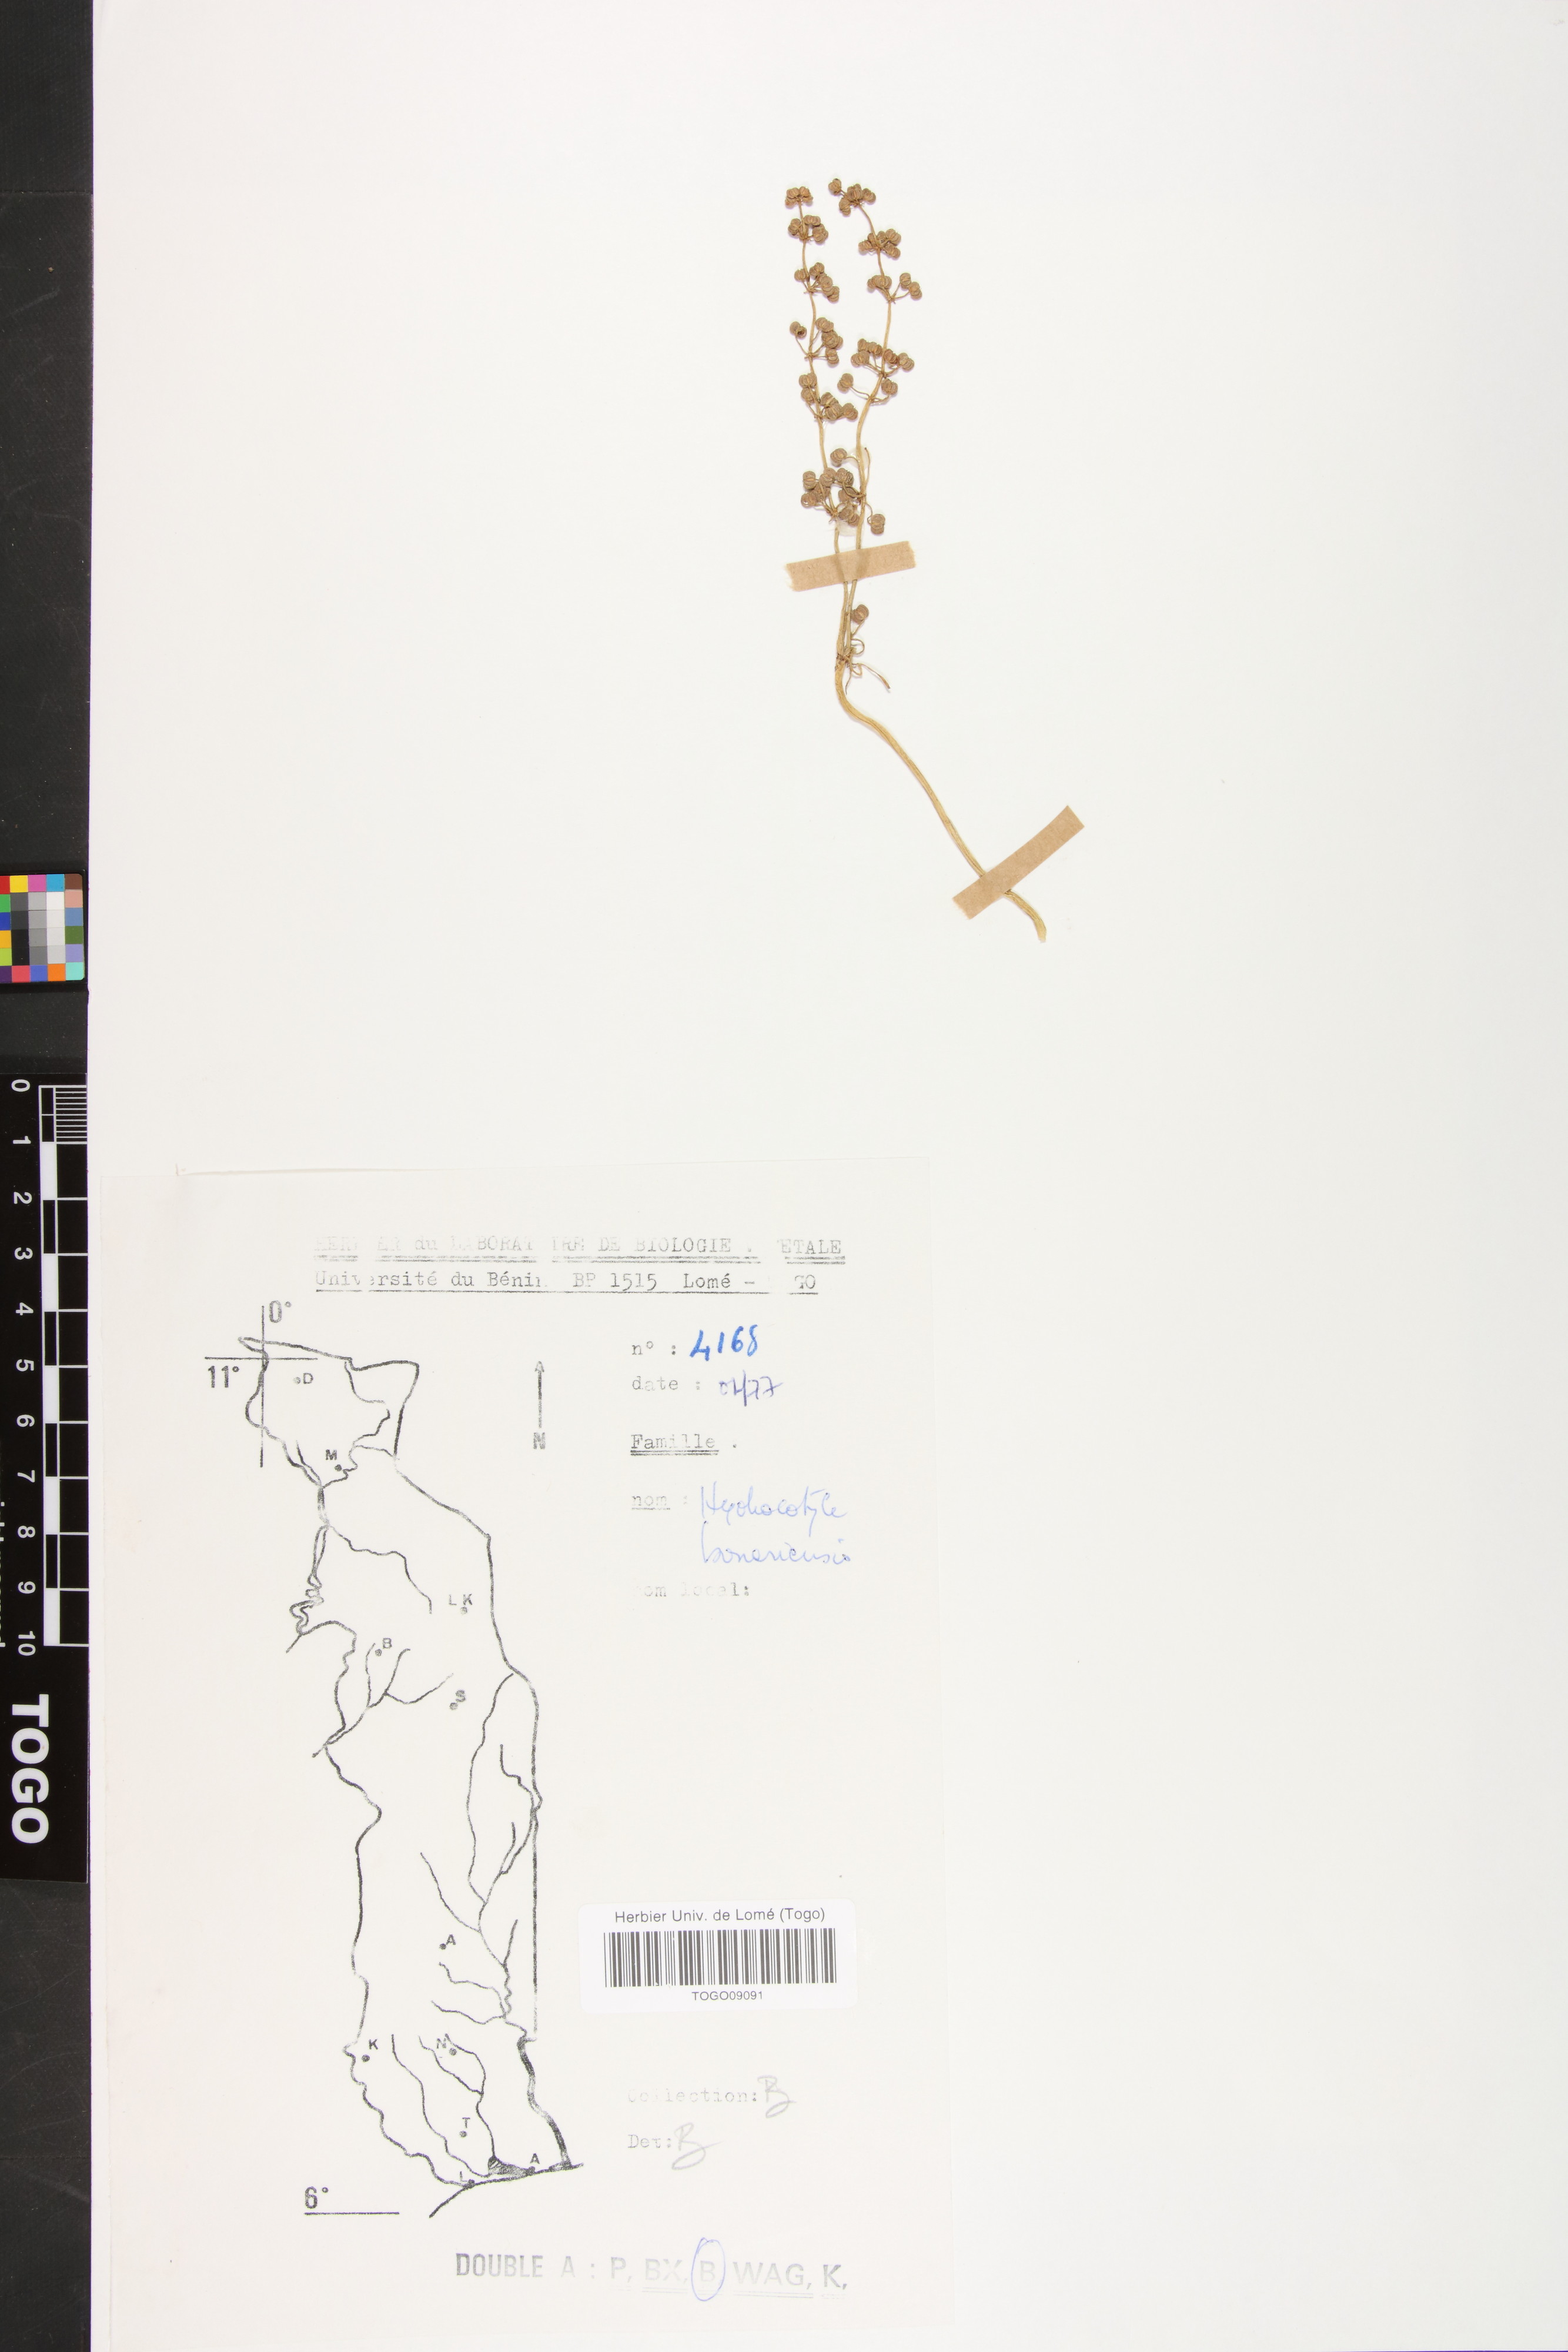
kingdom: Plantae
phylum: Tracheophyta
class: Magnoliopsida
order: Apiales
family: Araliaceae
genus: Hydrocotyle
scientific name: Hydrocotyle bonariensis
